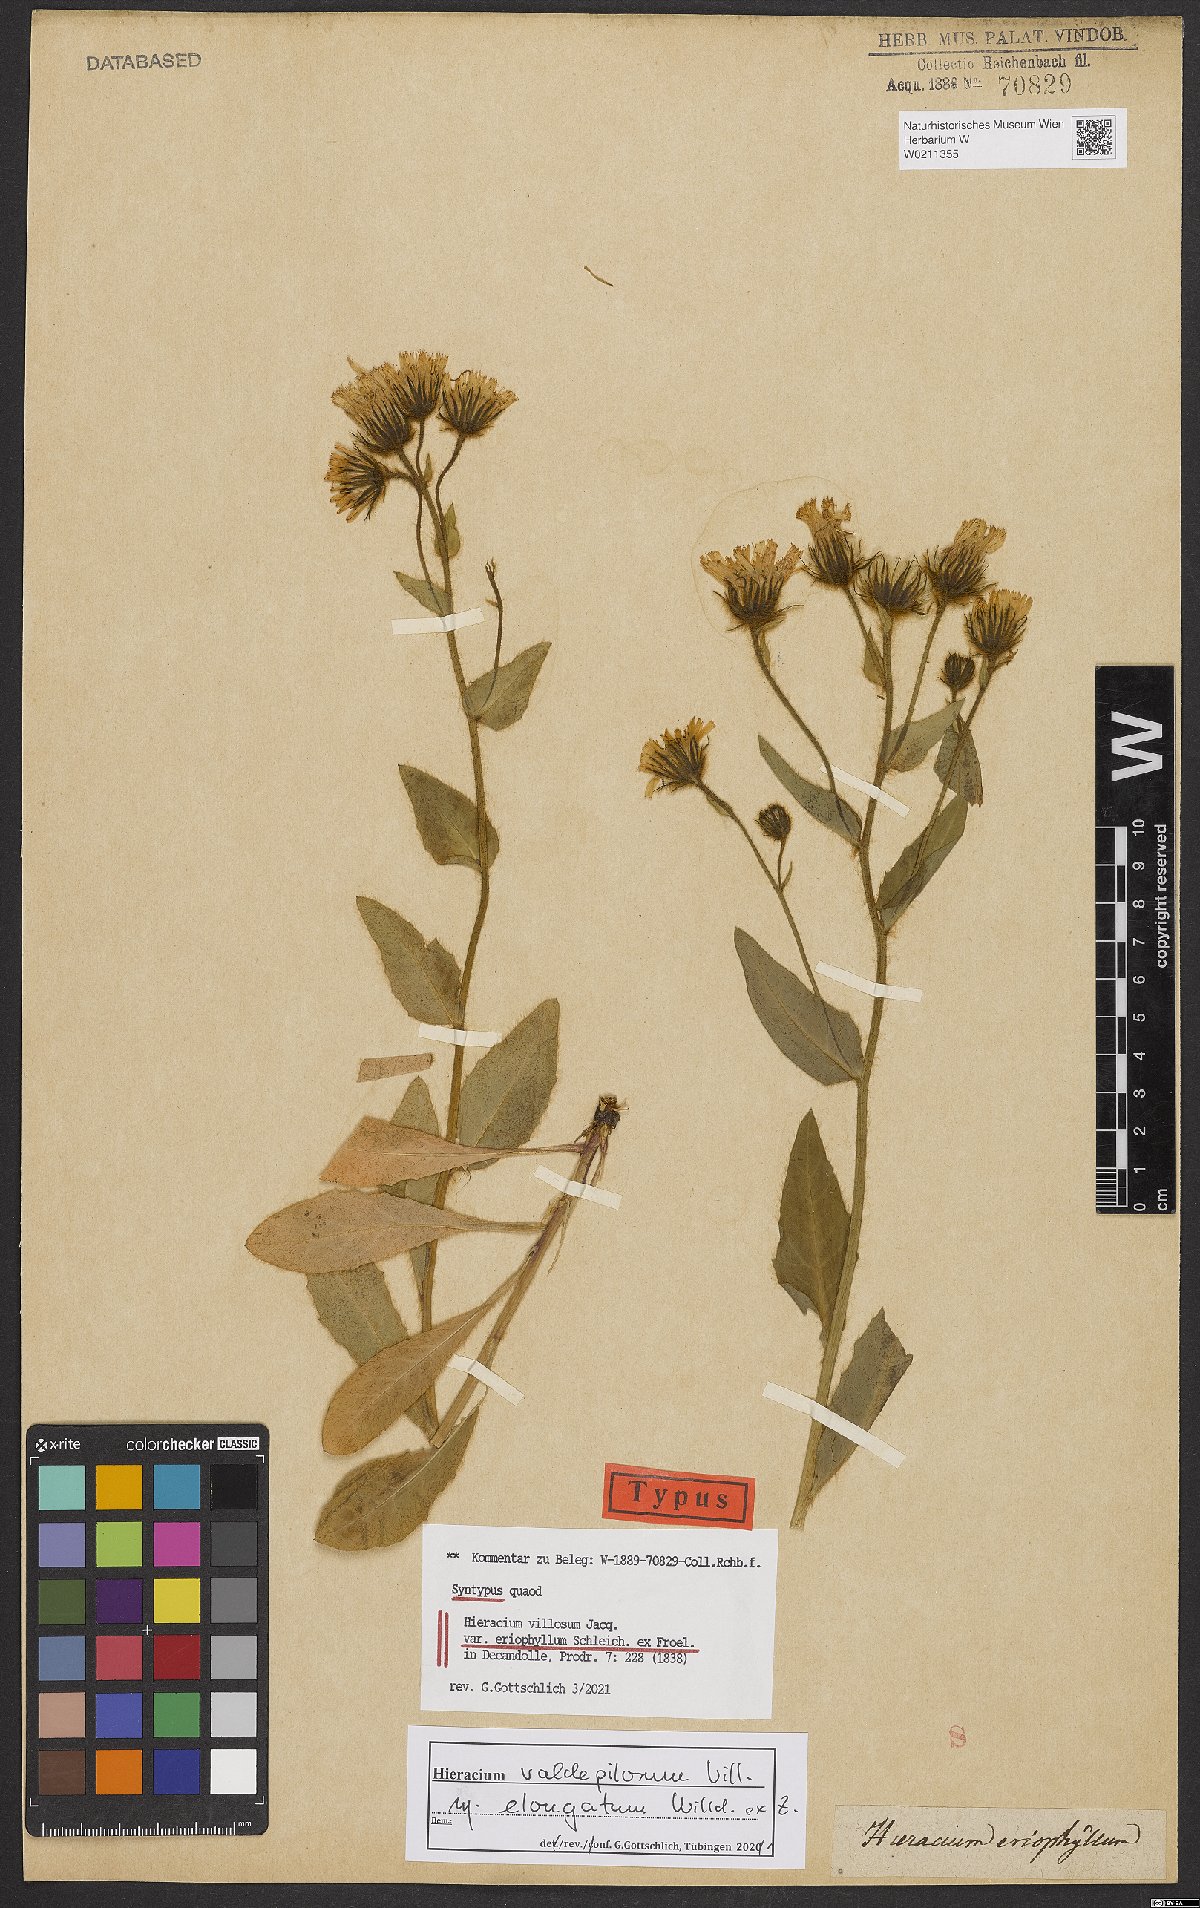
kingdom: Plantae
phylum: Tracheophyta
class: Magnoliopsida
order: Asterales
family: Asteraceae
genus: Hieracium
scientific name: Hieracium villosum
